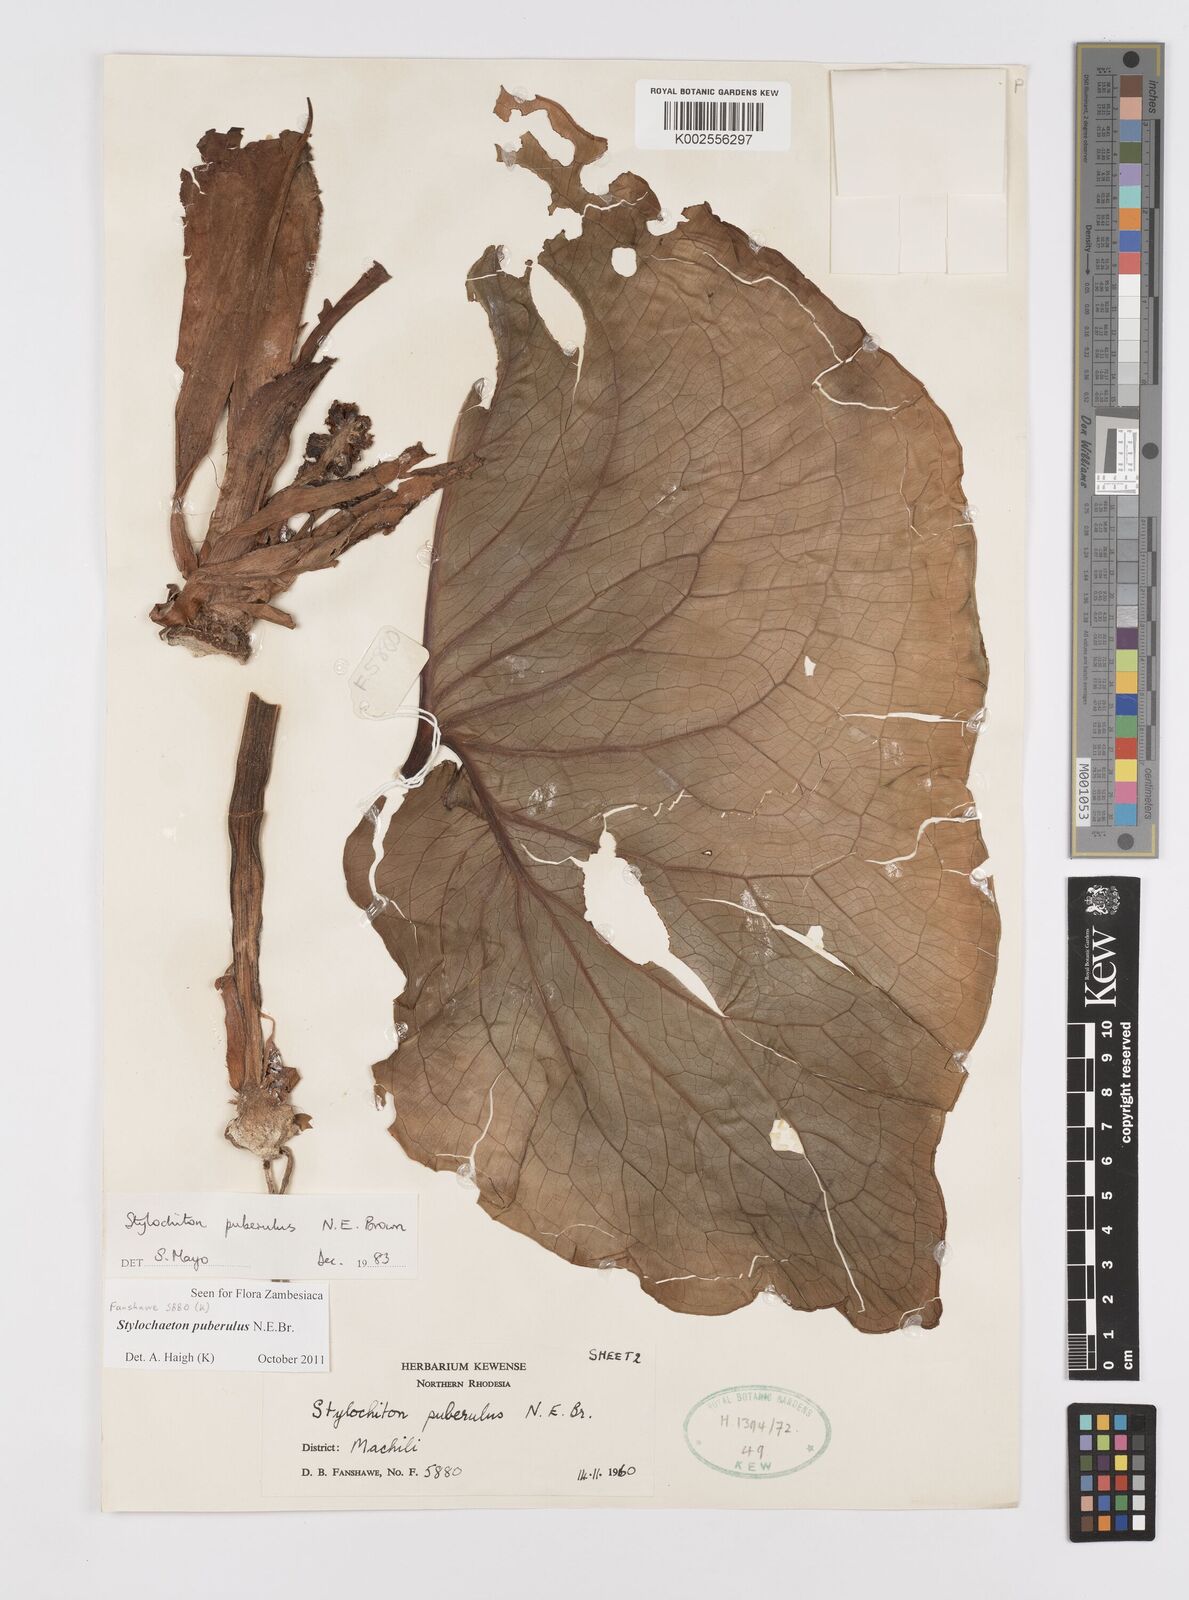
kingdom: Plantae
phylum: Tracheophyta
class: Liliopsida
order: Alismatales
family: Araceae
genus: Stylochaeton
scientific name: Stylochaeton puberulum
